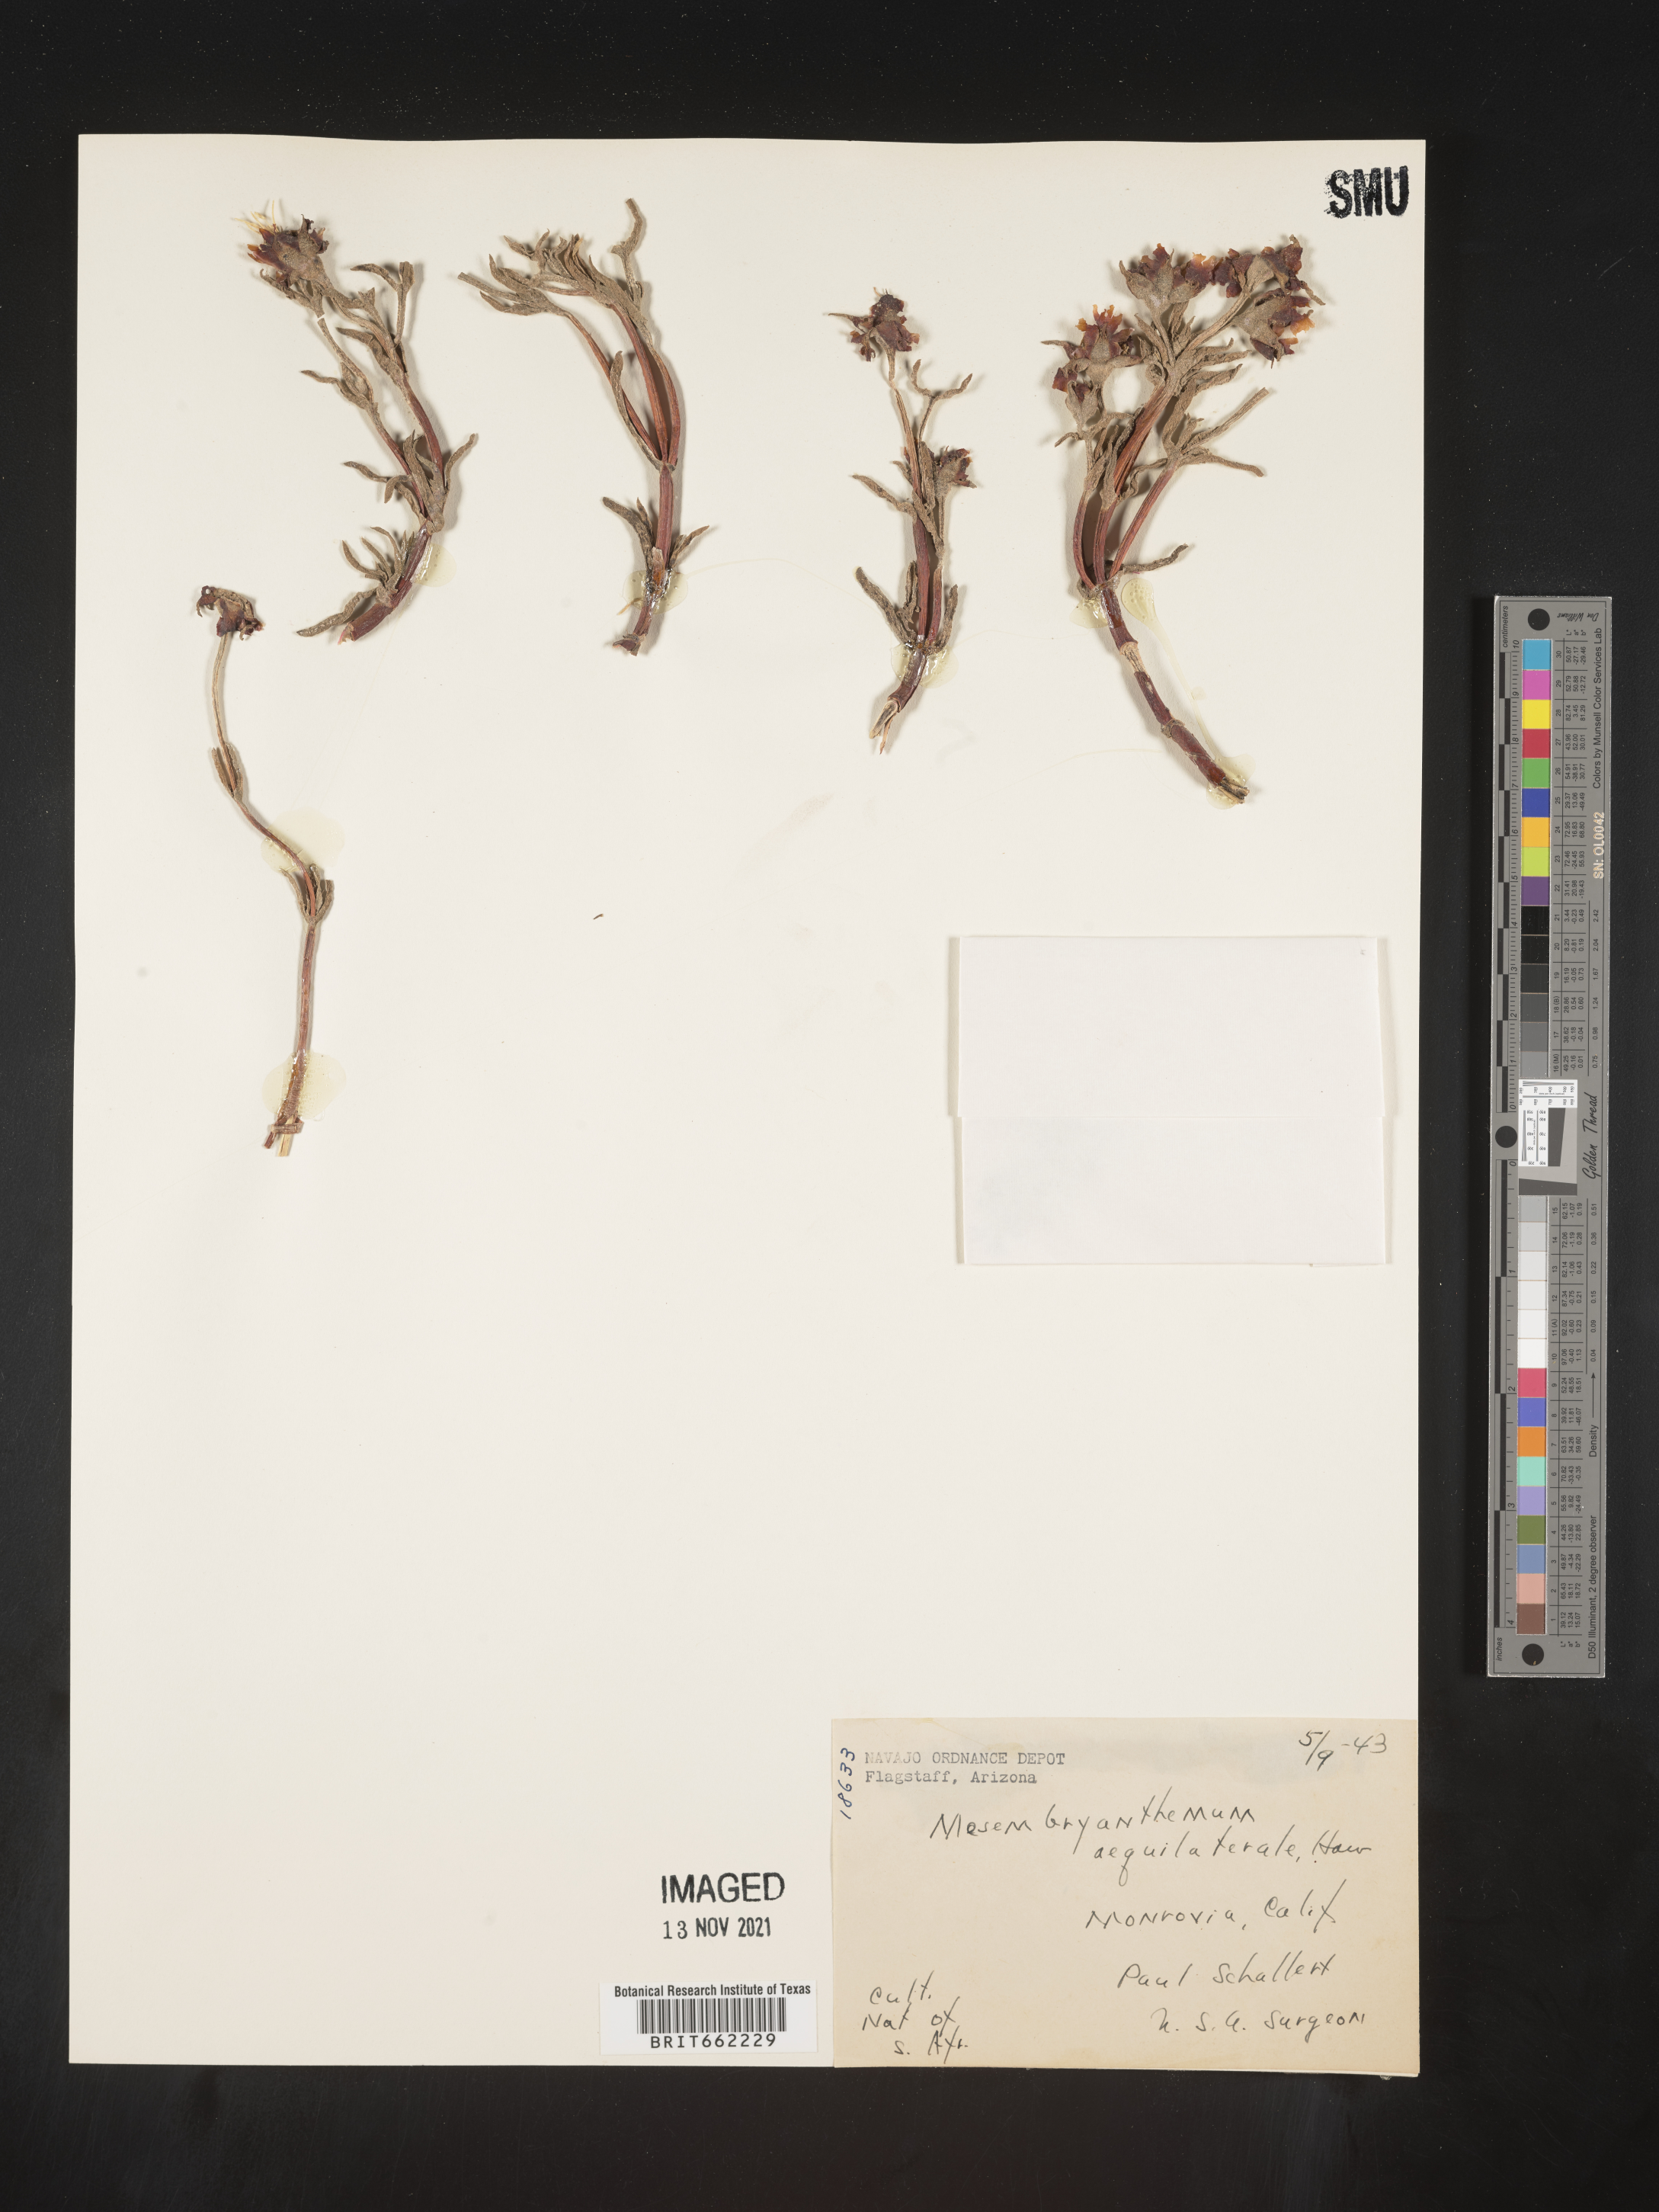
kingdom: Plantae
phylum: Tracheophyta
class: Magnoliopsida
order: Caryophyllales
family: Aizoaceae
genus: Mesembryanthemum
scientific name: Mesembryanthemum
